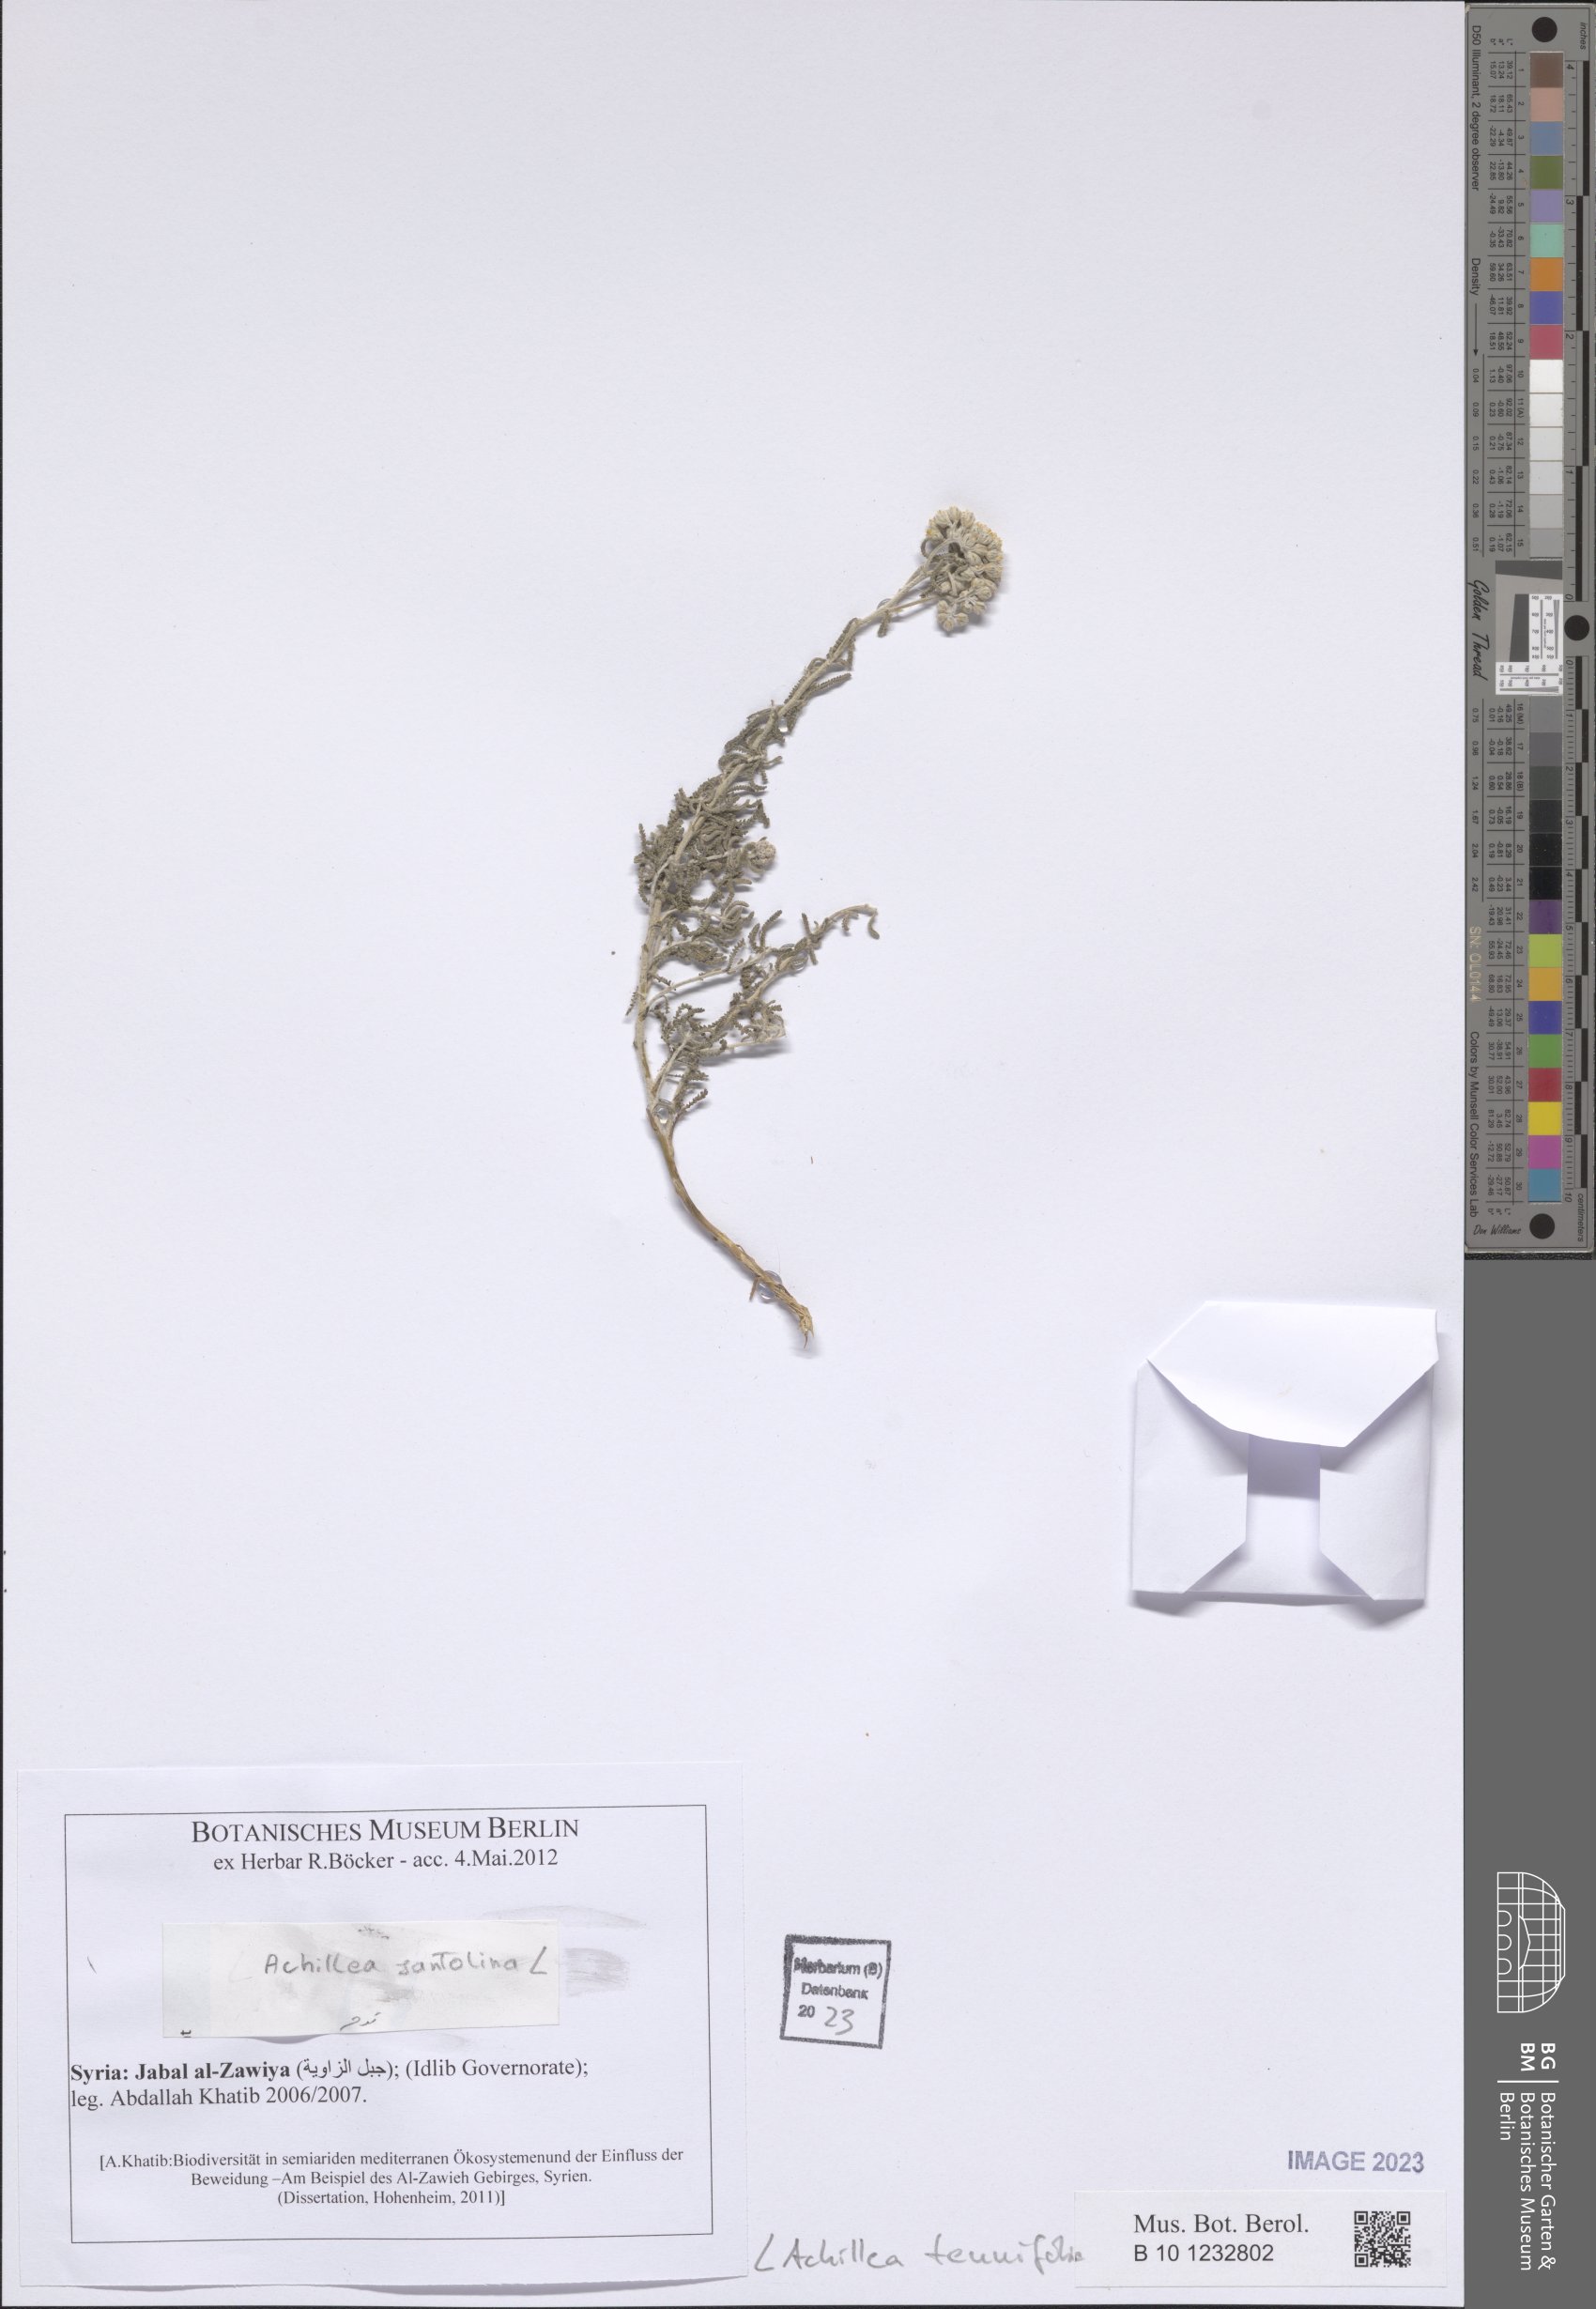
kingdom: Plantae
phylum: Tracheophyta
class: Magnoliopsida
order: Asterales
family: Asteraceae
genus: Achillea
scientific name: Achillea tenuifolia
